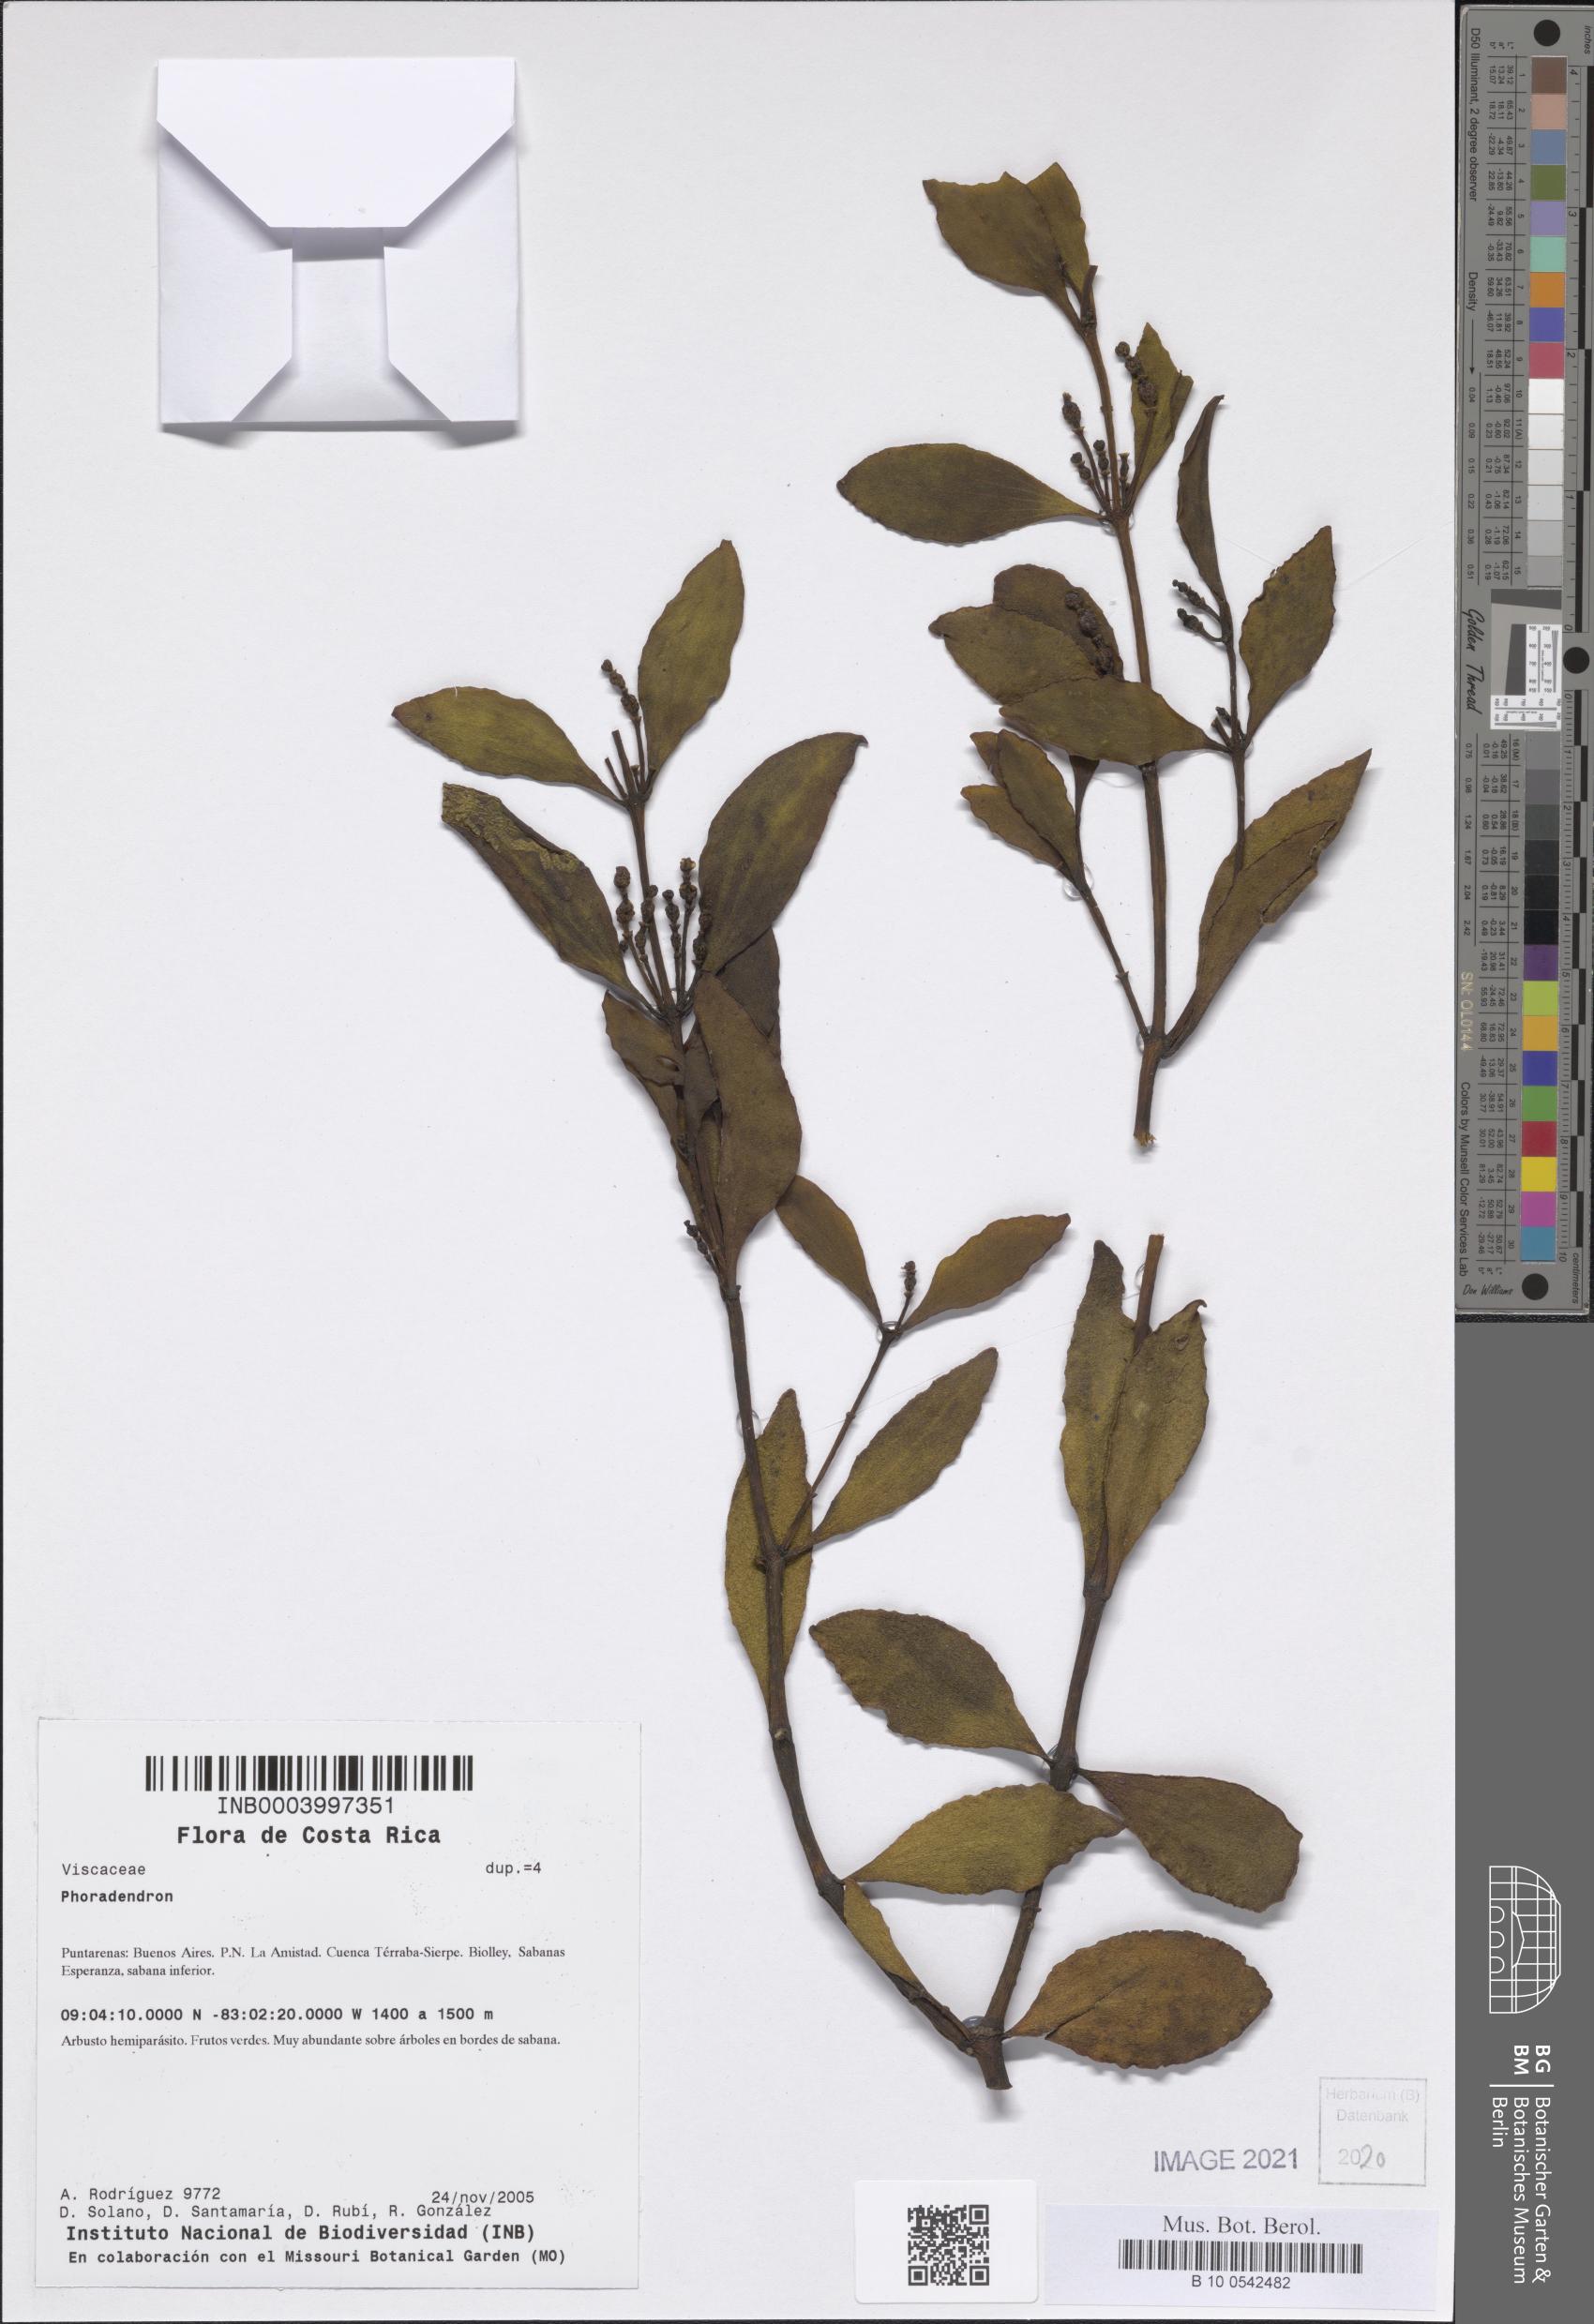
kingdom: Plantae
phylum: Tracheophyta
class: Magnoliopsida
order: Santalales
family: Viscaceae
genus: Phoradendron
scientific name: Phoradendron
